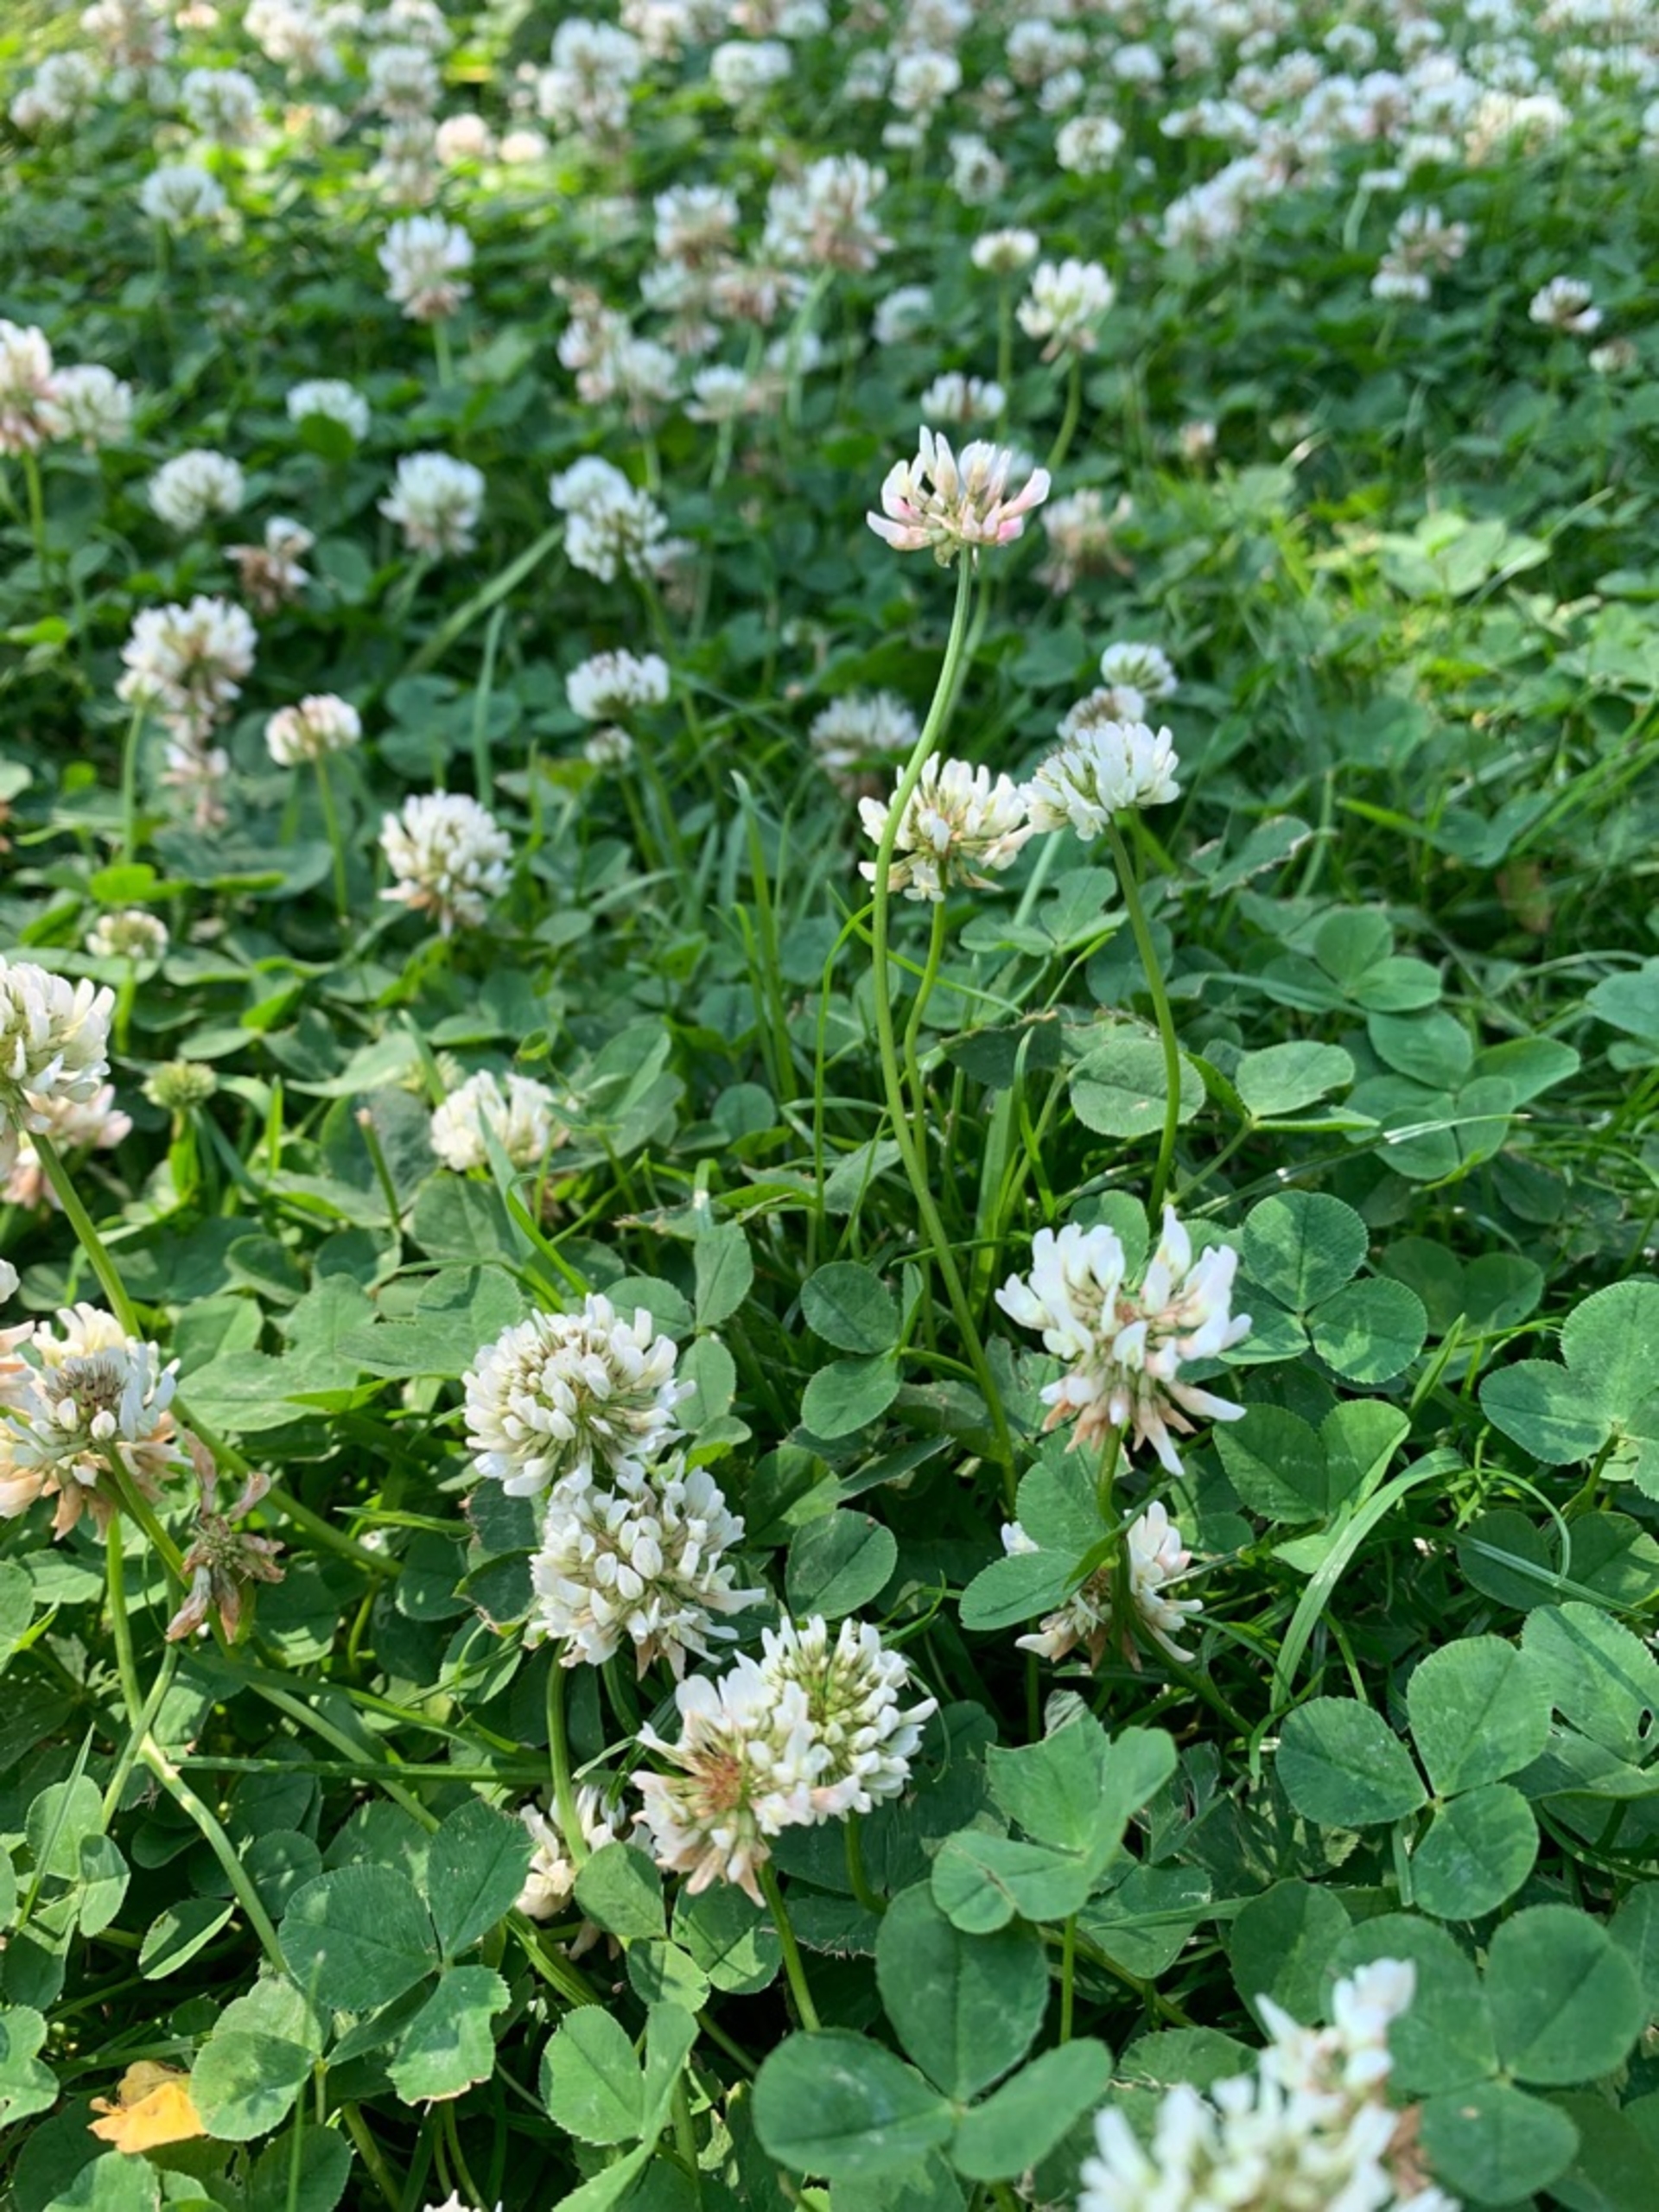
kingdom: Plantae
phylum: Tracheophyta
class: Magnoliopsida
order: Fabales
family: Fabaceae
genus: Trifolium
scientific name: Trifolium repens
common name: Hvid-kløver
